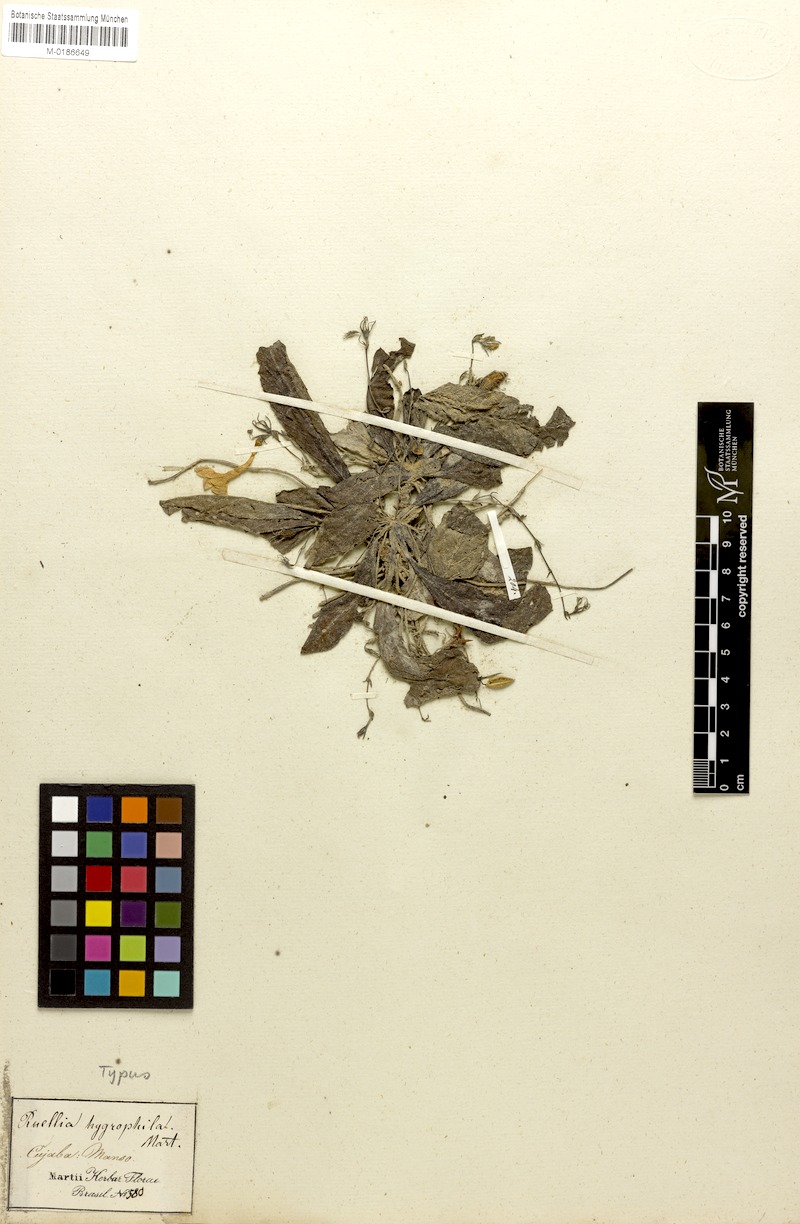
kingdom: Plantae
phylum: Tracheophyta
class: Magnoliopsida
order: Lamiales
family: Acanthaceae
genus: Ruellia
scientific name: Ruellia hygrophila
